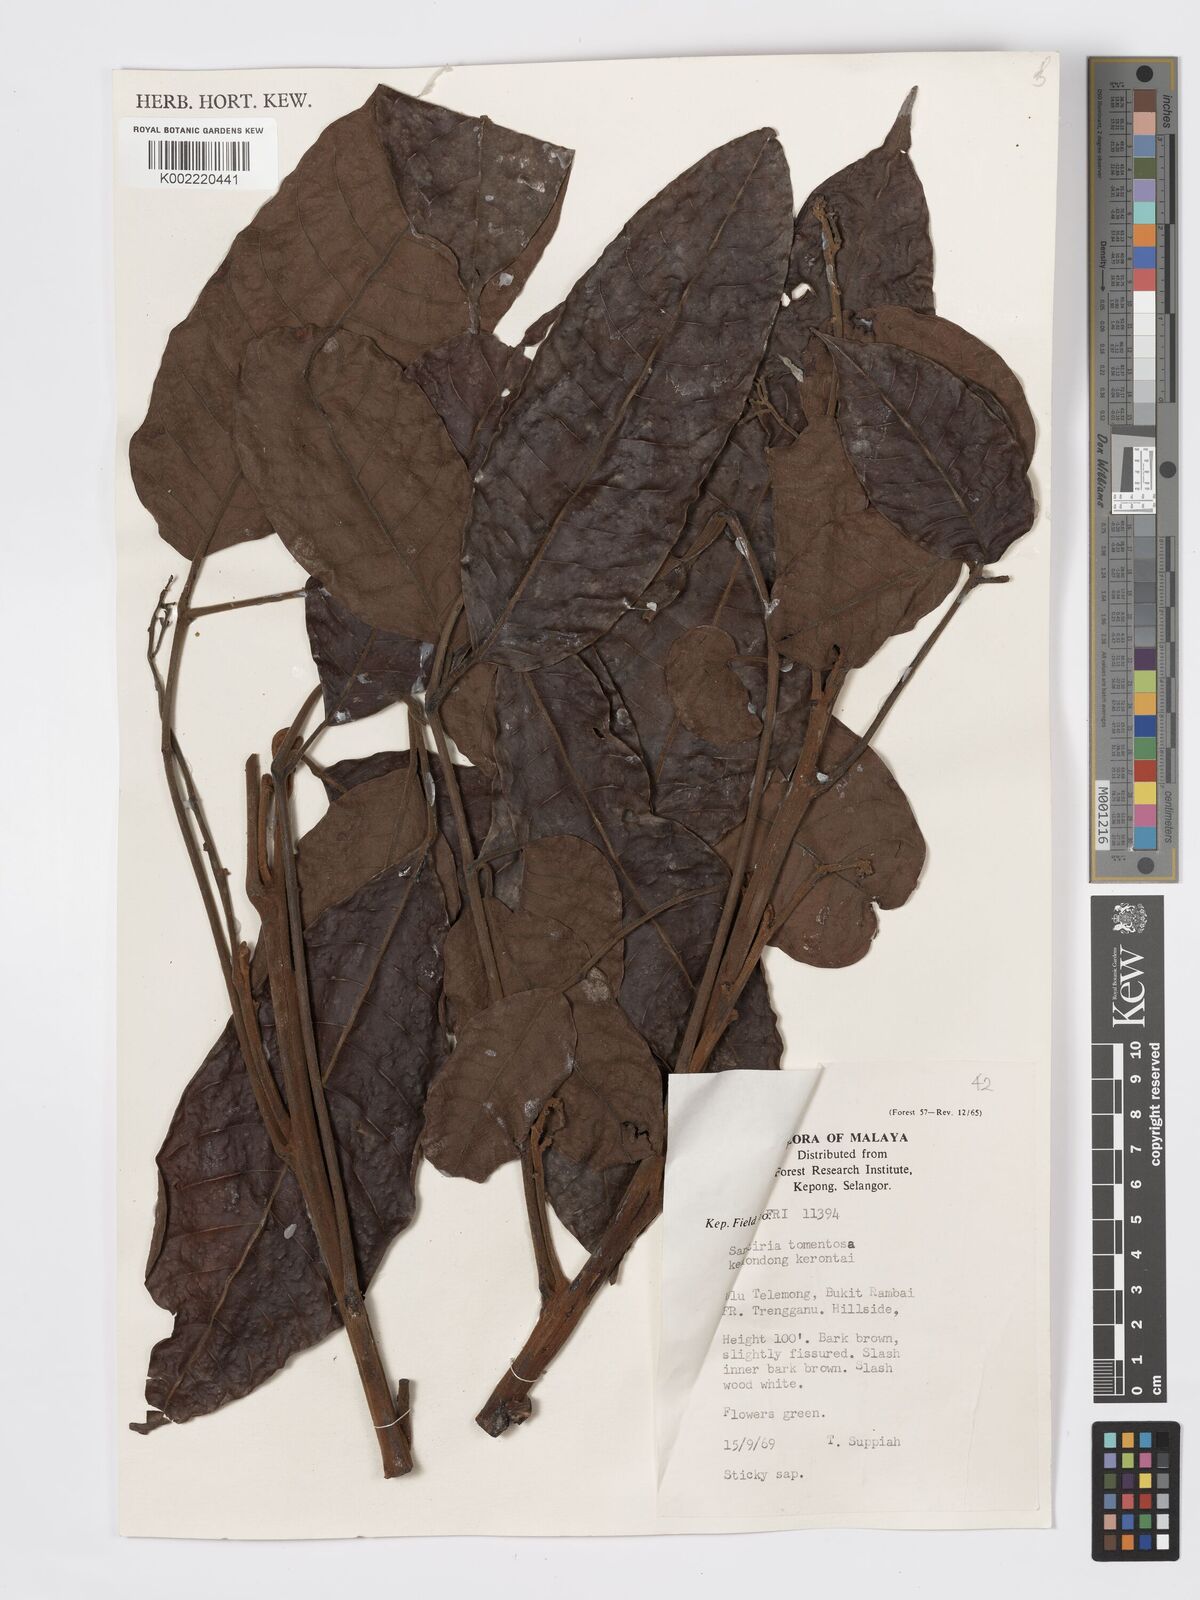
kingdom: Plantae
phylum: Tracheophyta
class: Magnoliopsida
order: Sapindales
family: Burseraceae
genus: Santiria
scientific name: Santiria tomentosa
